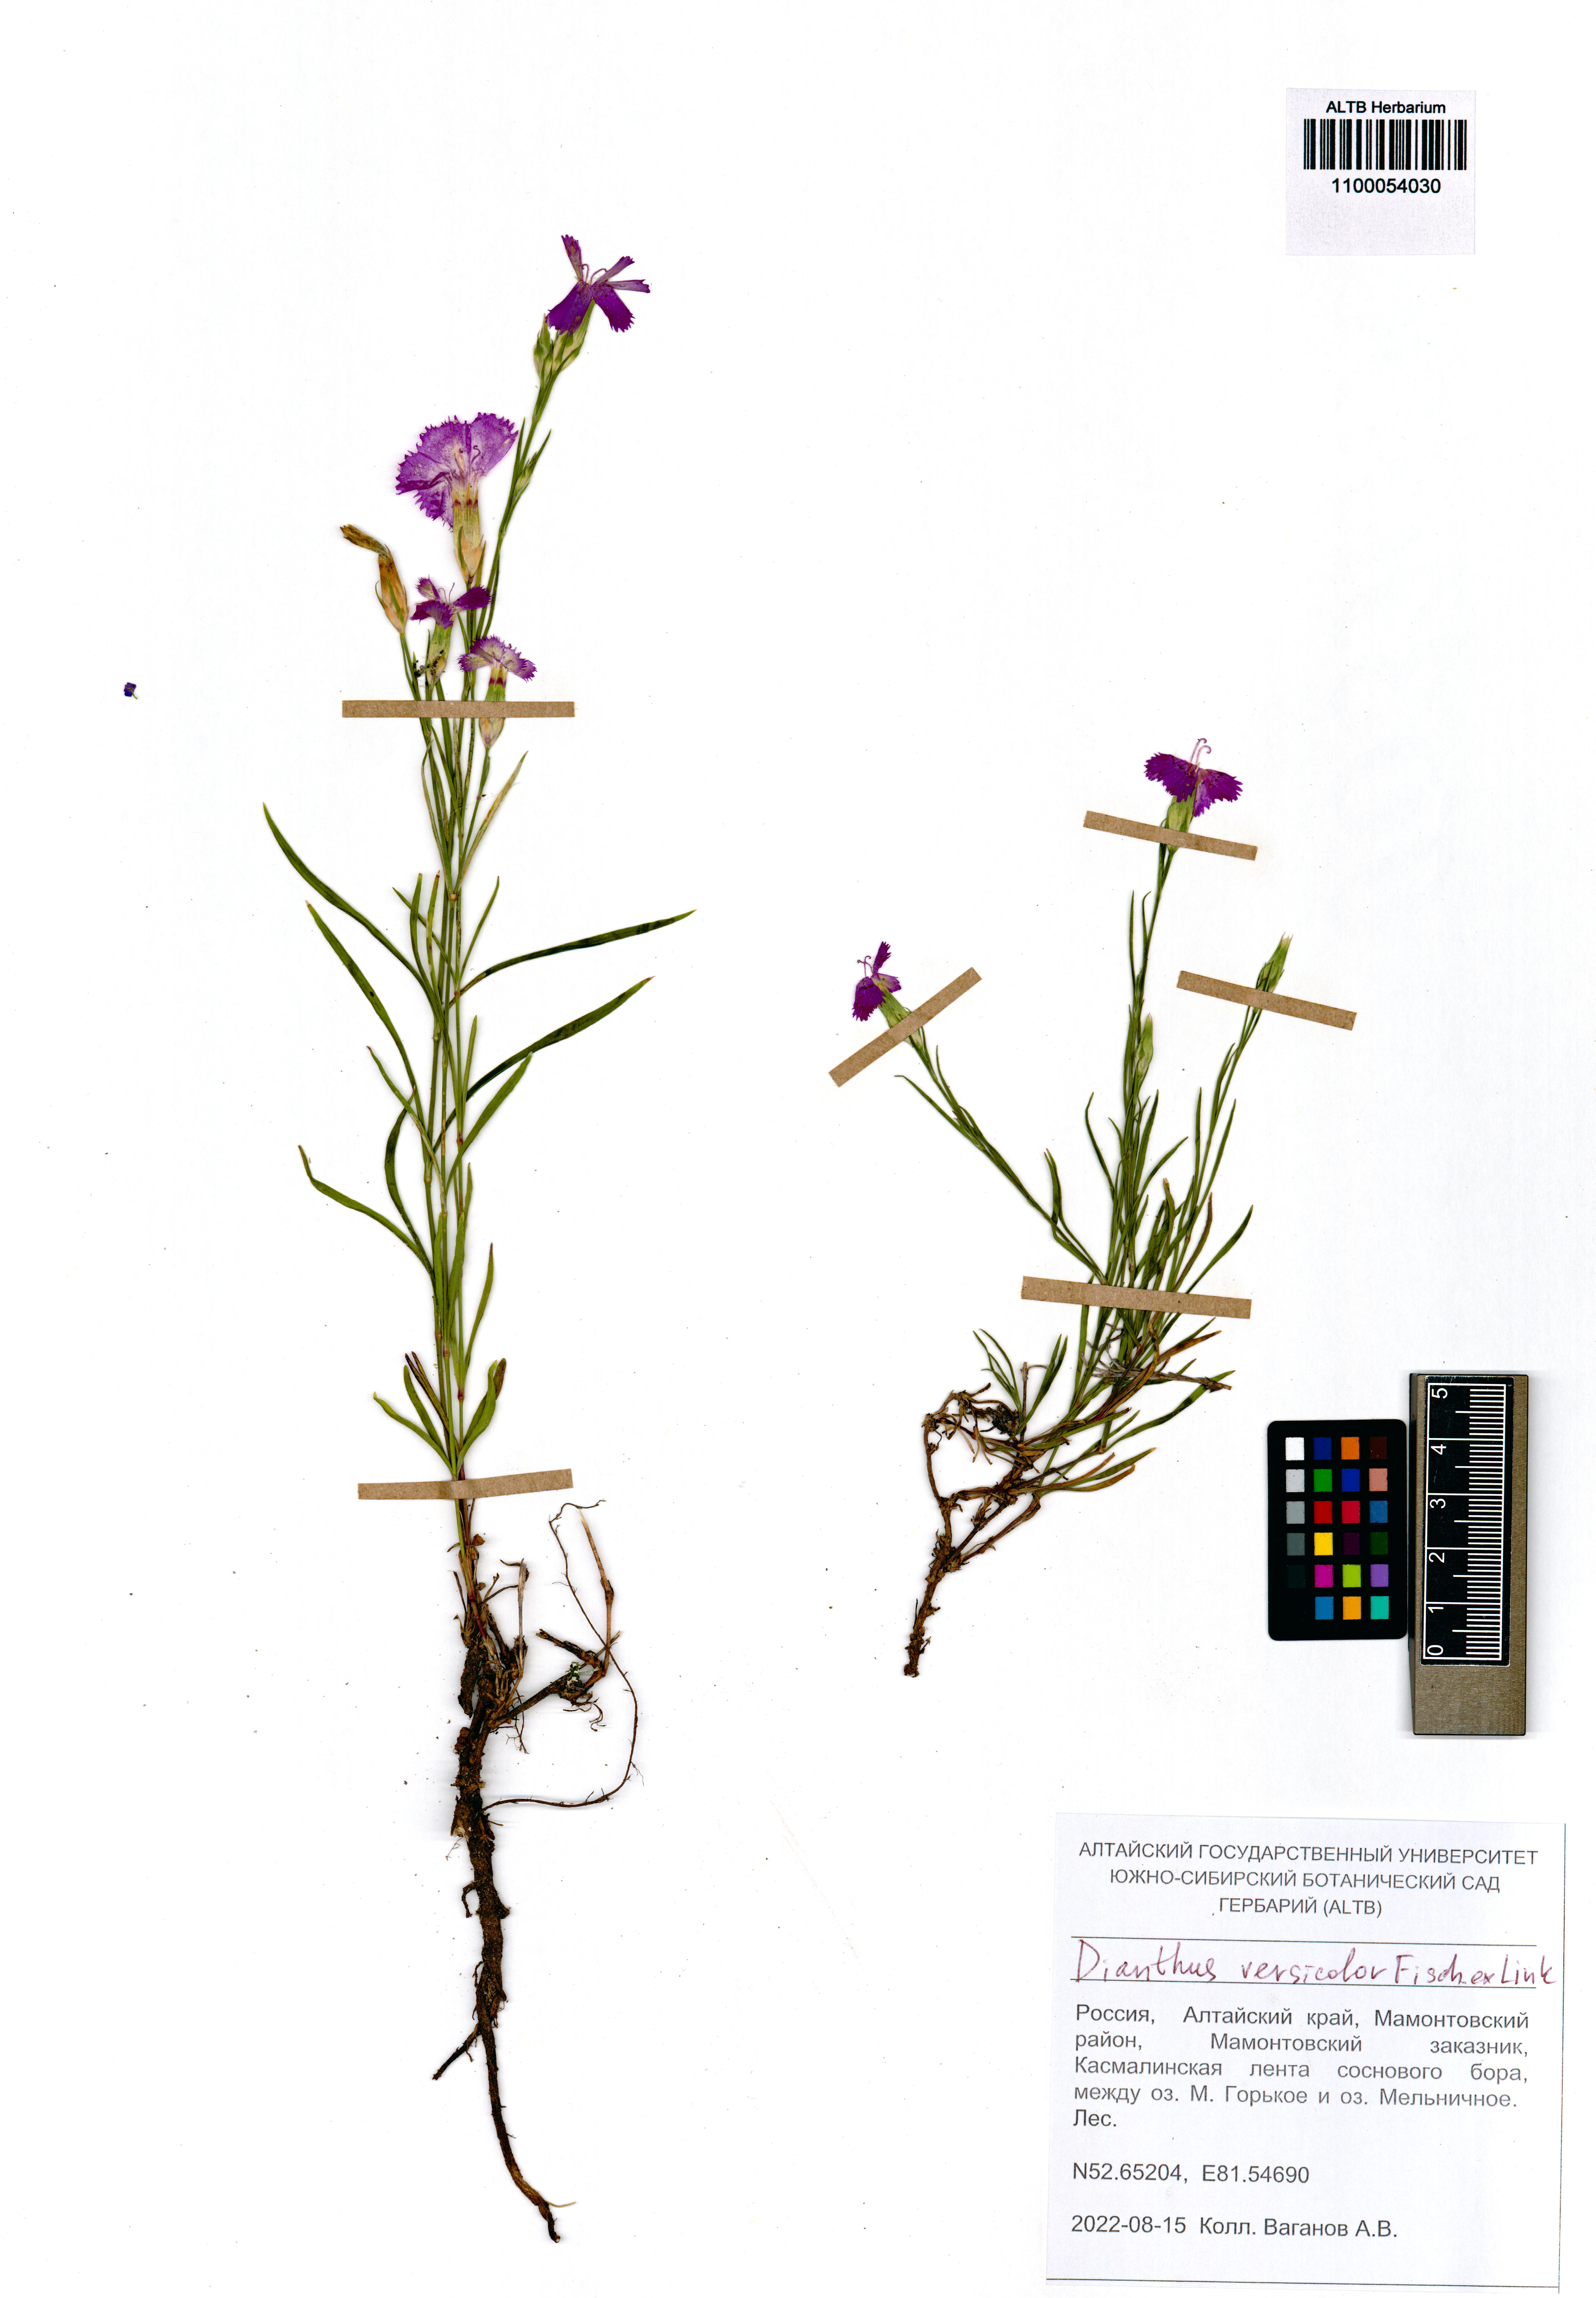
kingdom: Plantae
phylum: Tracheophyta
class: Magnoliopsida
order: Caryophyllales
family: Caryophyllaceae
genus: Dianthus
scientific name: Dianthus chinensis
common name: Rainbow pink
